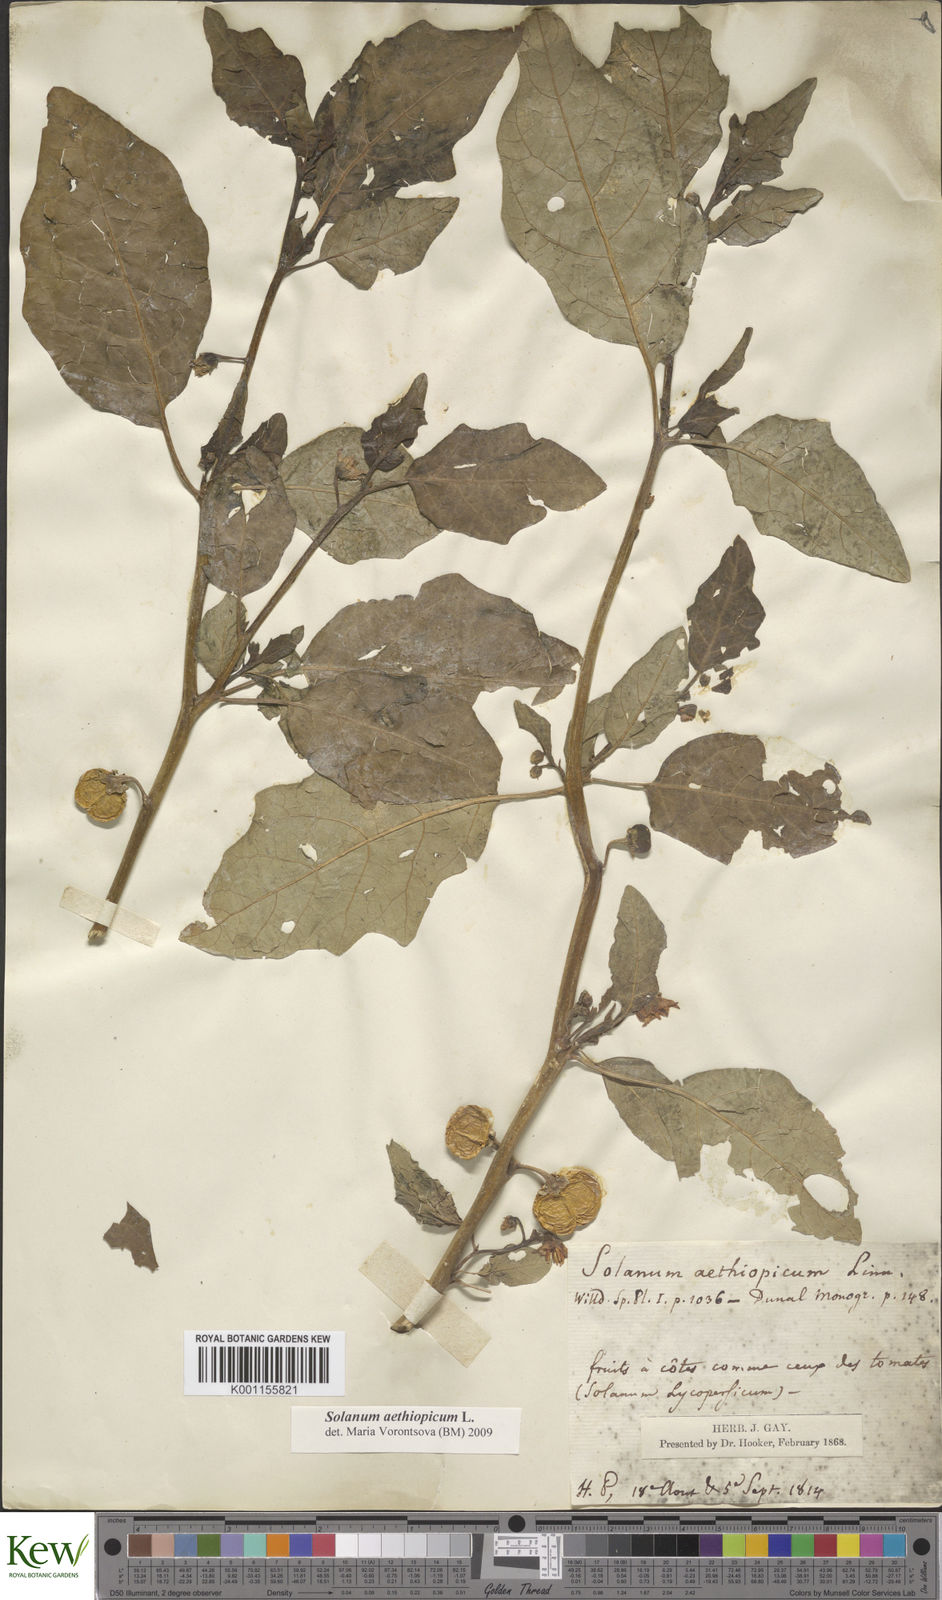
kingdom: Plantae
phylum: Tracheophyta
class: Magnoliopsida
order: Solanales
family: Solanaceae
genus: Solanum
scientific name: Solanum aethiopicum
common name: Gilo
